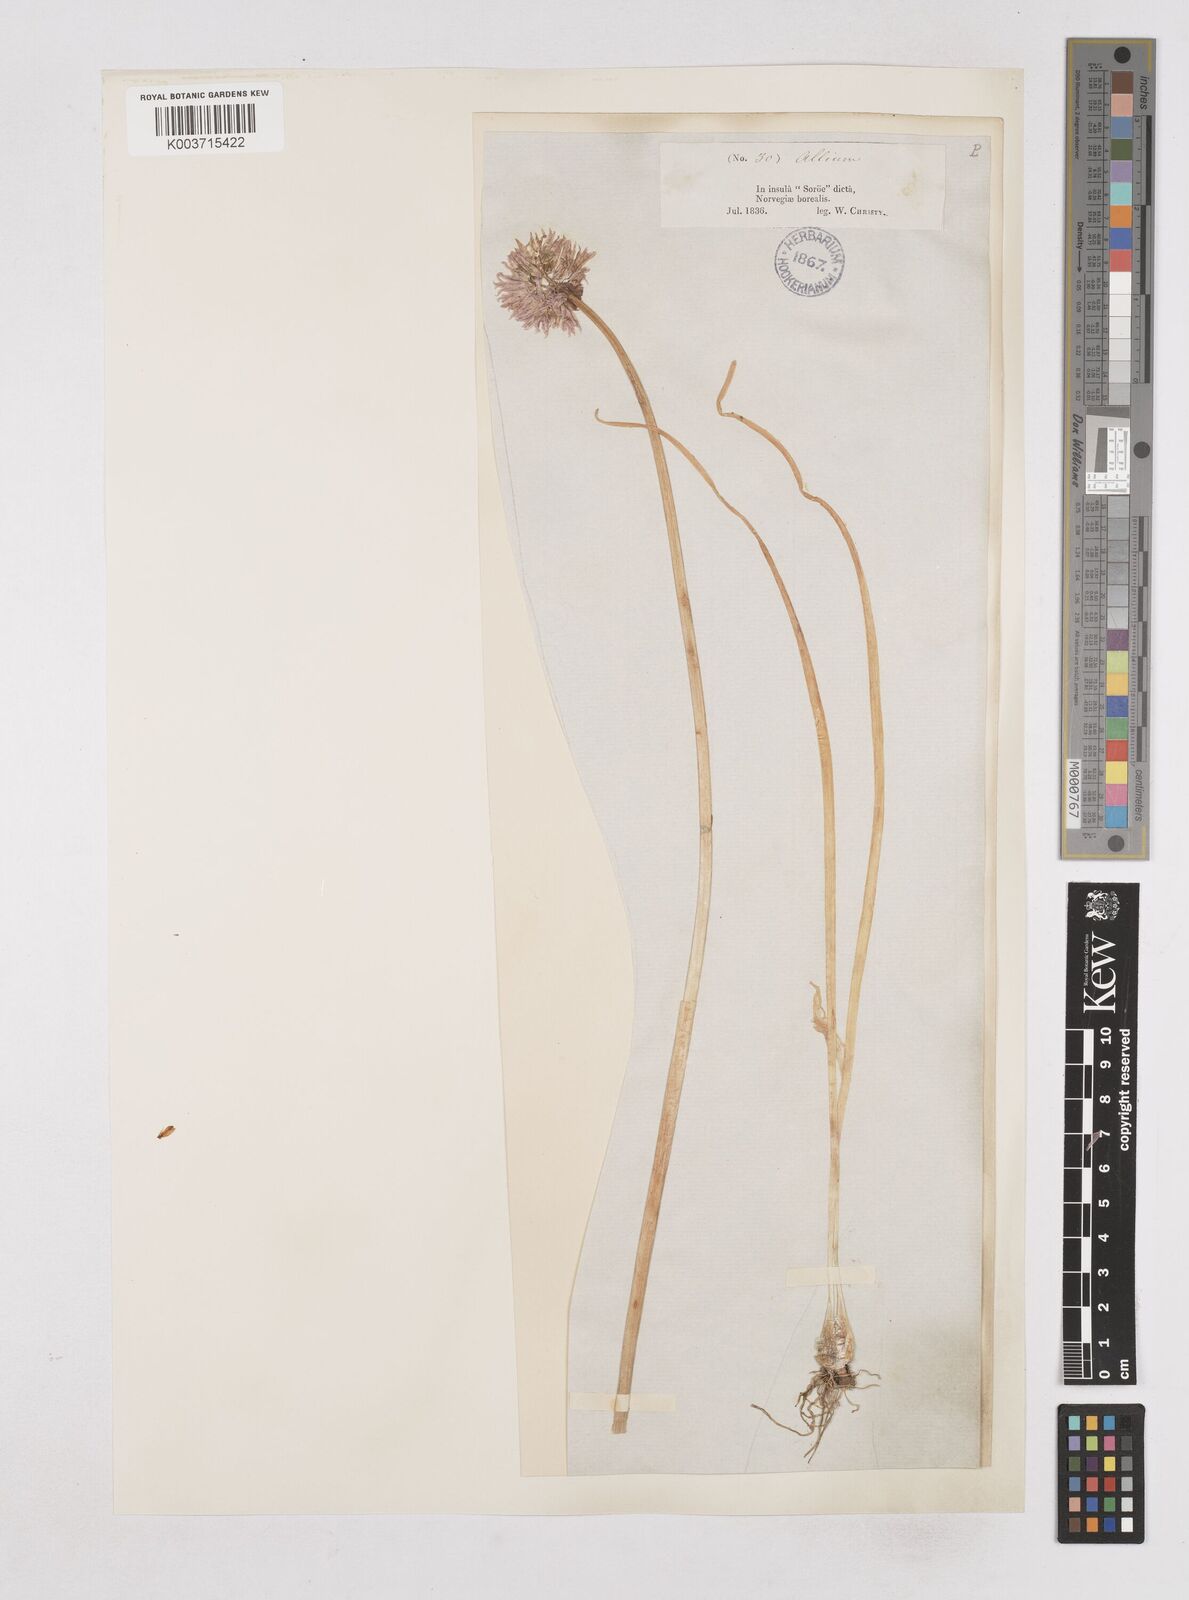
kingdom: Plantae
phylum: Tracheophyta
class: Liliopsida
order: Asparagales
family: Amaryllidaceae
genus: Allium
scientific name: Allium schoenoprasum
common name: Chives
